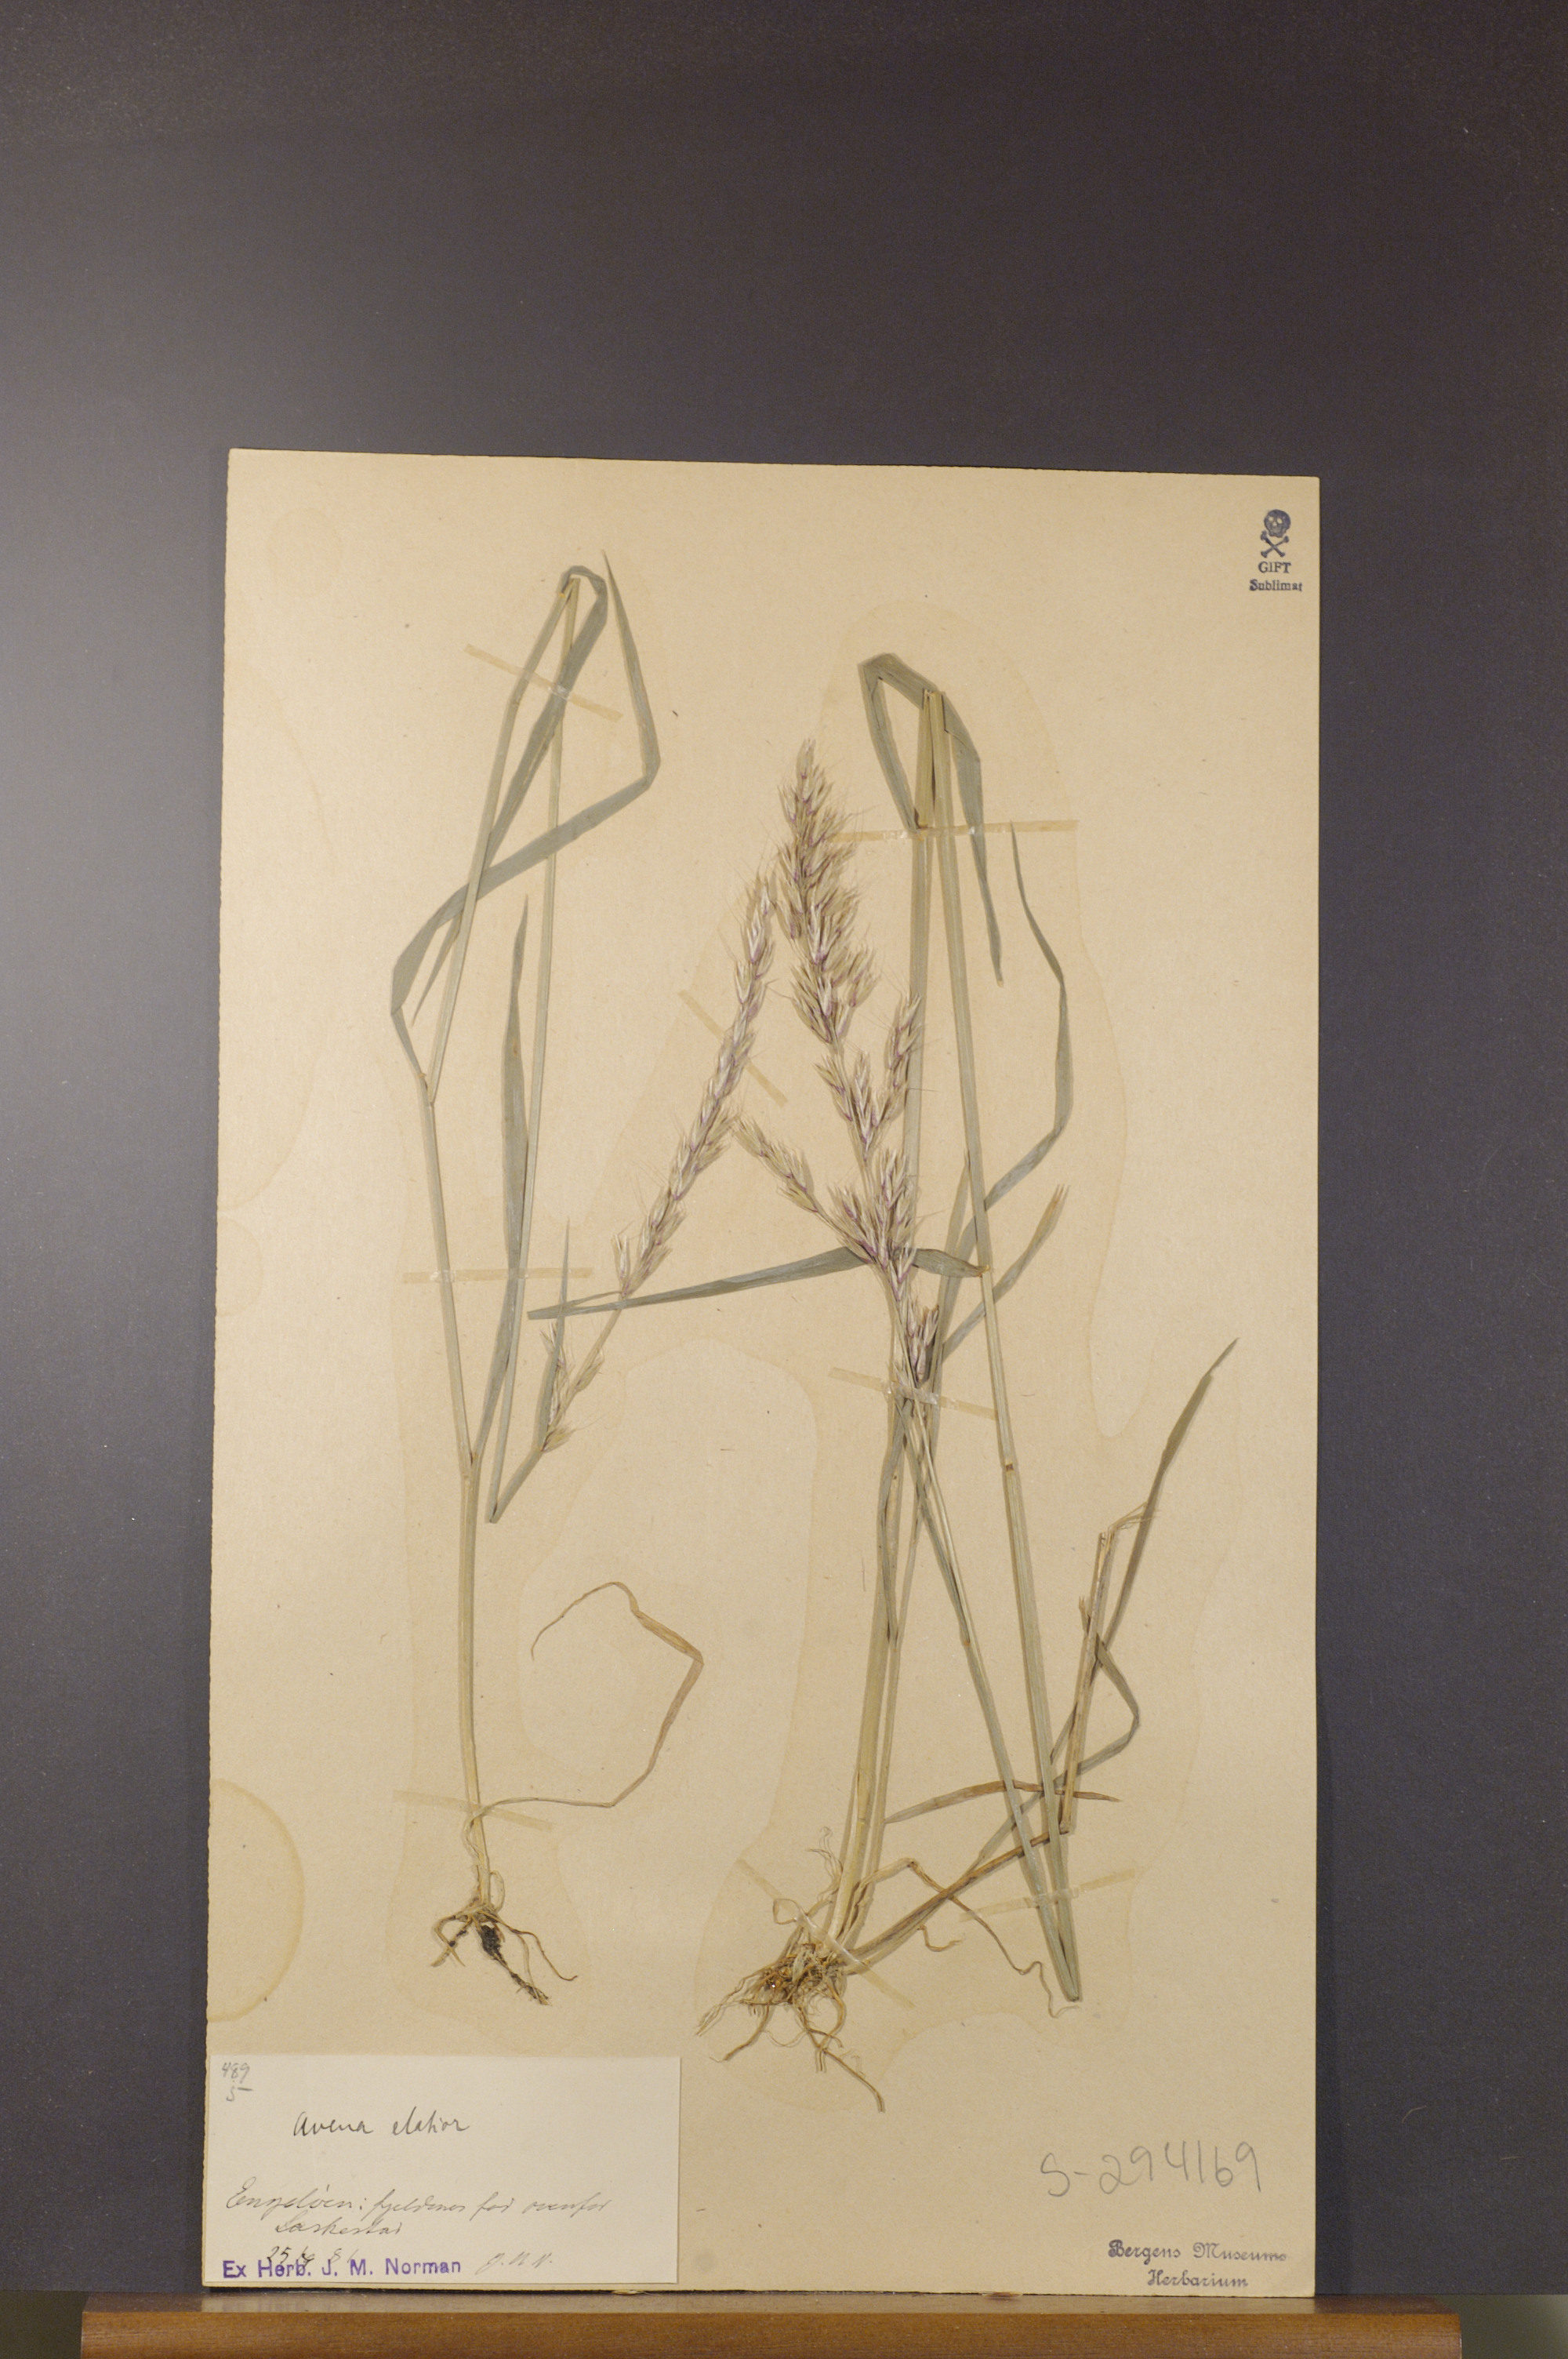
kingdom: Plantae
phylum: Tracheophyta
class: Liliopsida
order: Poales
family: Poaceae
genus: Arrhenatherum
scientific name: Arrhenatherum elatius
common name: Tall oatgrass
